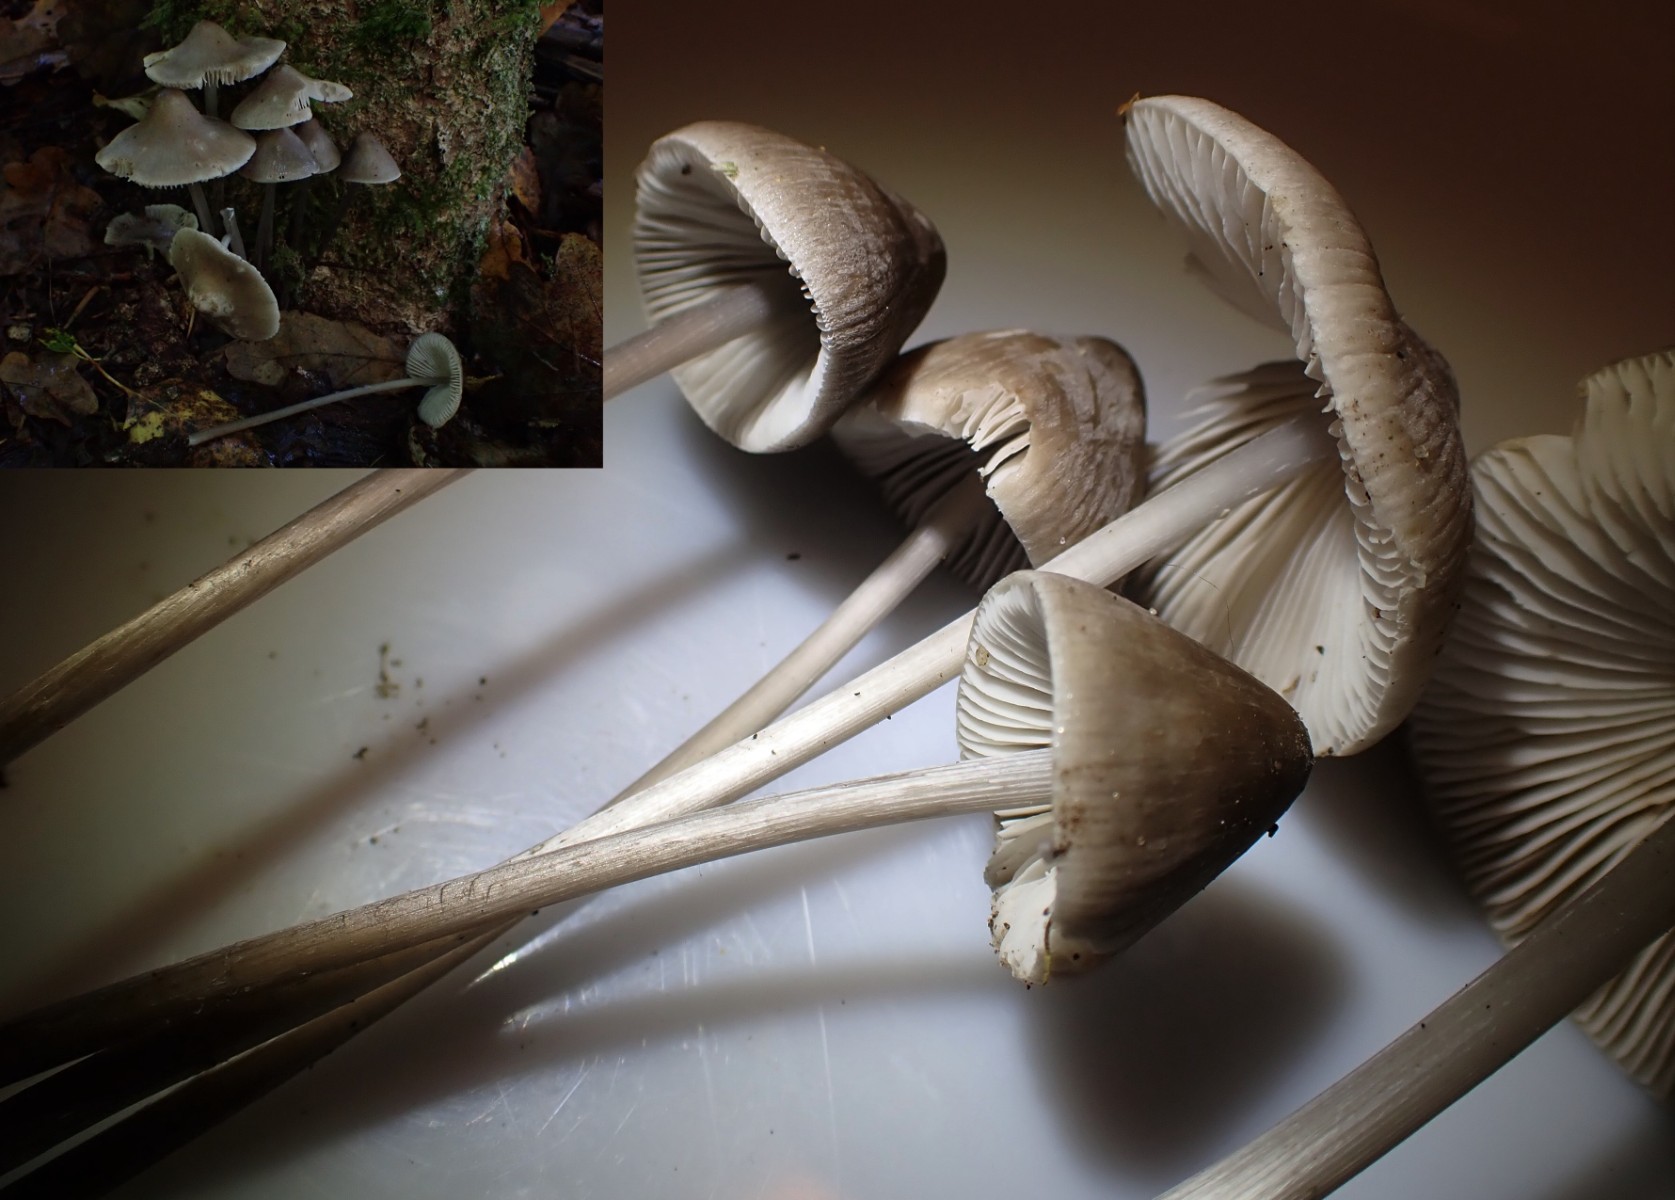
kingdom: Fungi
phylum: Basidiomycota
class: Agaricomycetes
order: Agaricales
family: Mycenaceae
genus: Mycena
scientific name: Mycena polygramma
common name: mangestribet huesvamp
